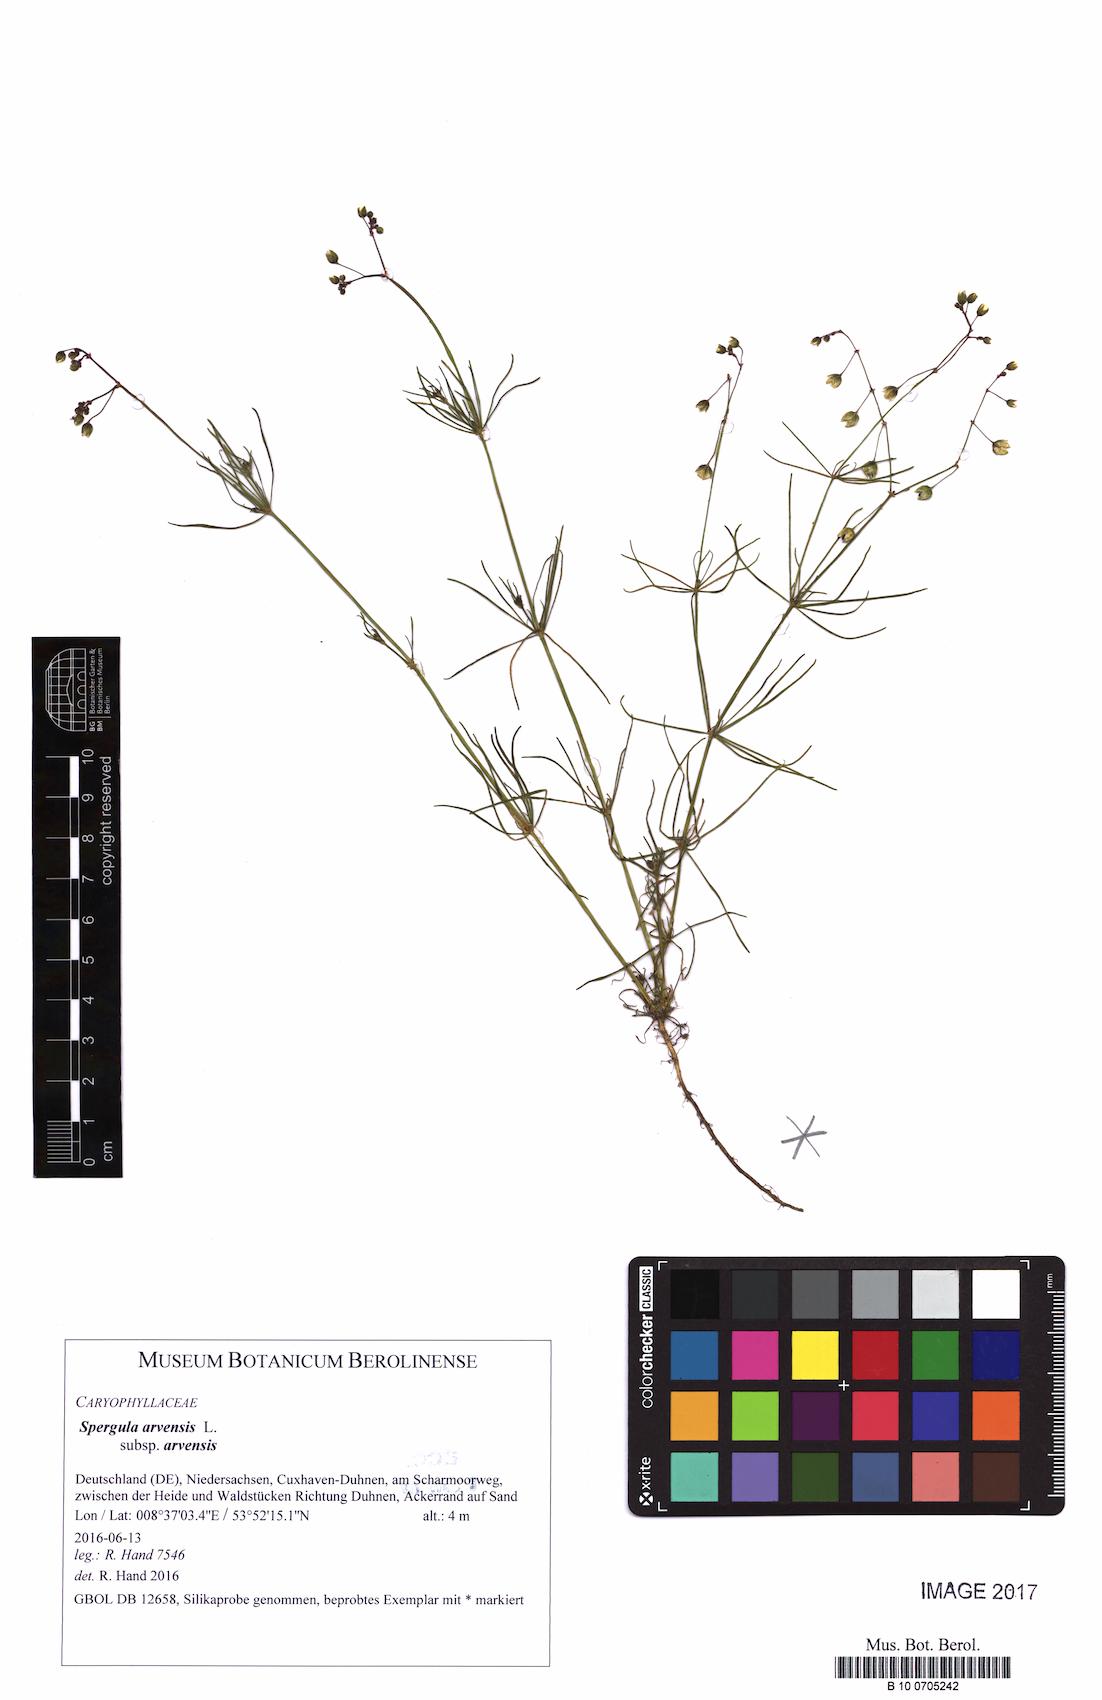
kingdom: Plantae
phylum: Tracheophyta
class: Magnoliopsida
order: Caryophyllales
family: Caryophyllaceae
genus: Spergula
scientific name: Spergula arvensis
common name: Corn spurrey
